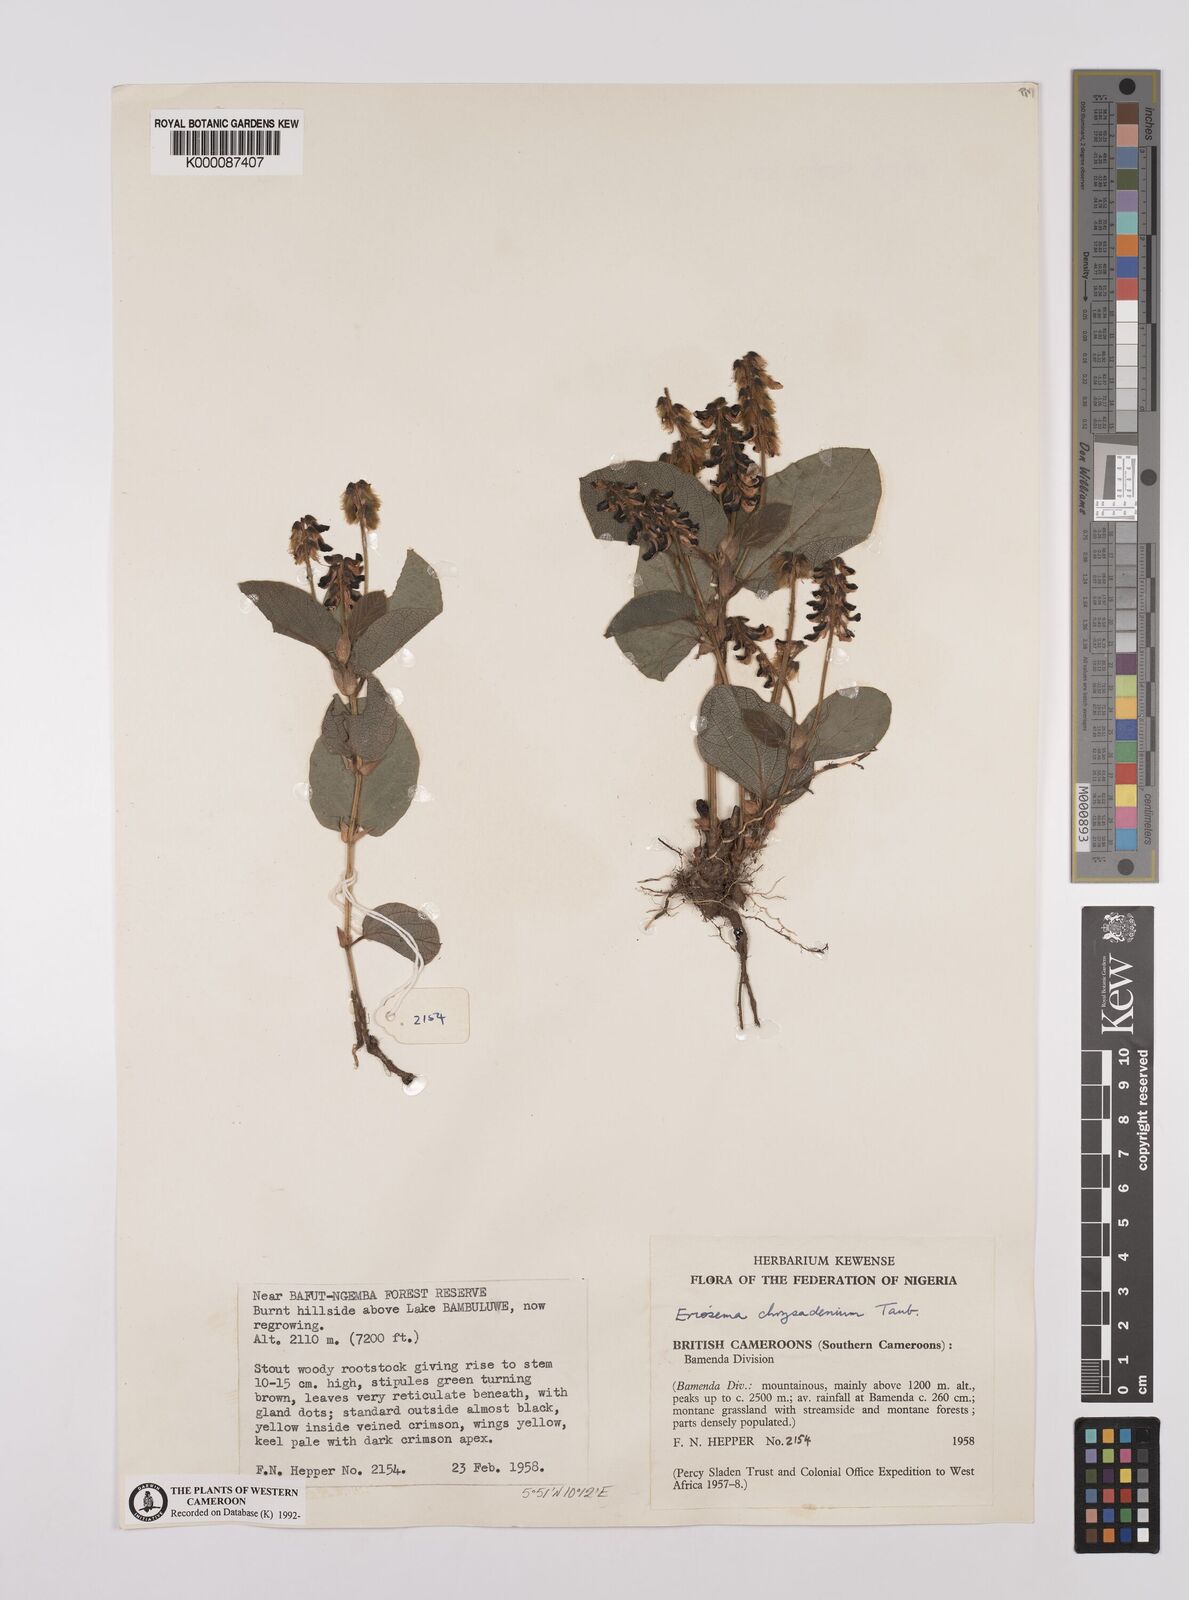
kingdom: Plantae
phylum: Tracheophyta
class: Magnoliopsida
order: Fabales
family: Fabaceae
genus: Eriosema
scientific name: Eriosema chrysadenium
